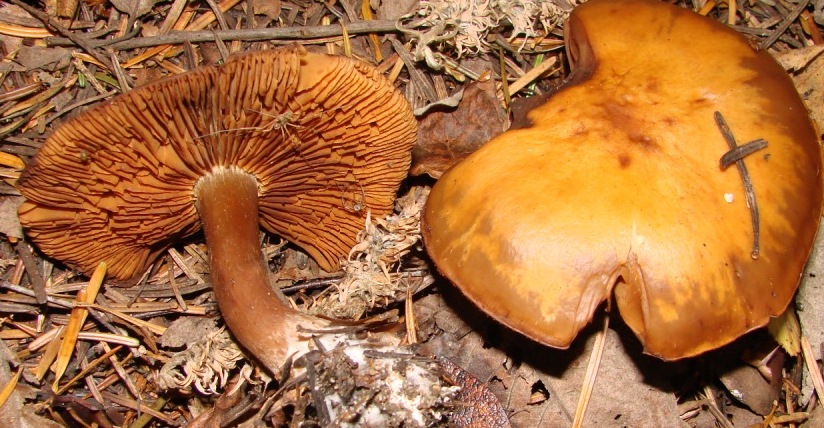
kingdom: Fungi
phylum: Basidiomycota
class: Agaricomycetes
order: Agaricales
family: Hymenogastraceae
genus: Gymnopilus
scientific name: Gymnopilus penetrans
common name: plettet flammehat
